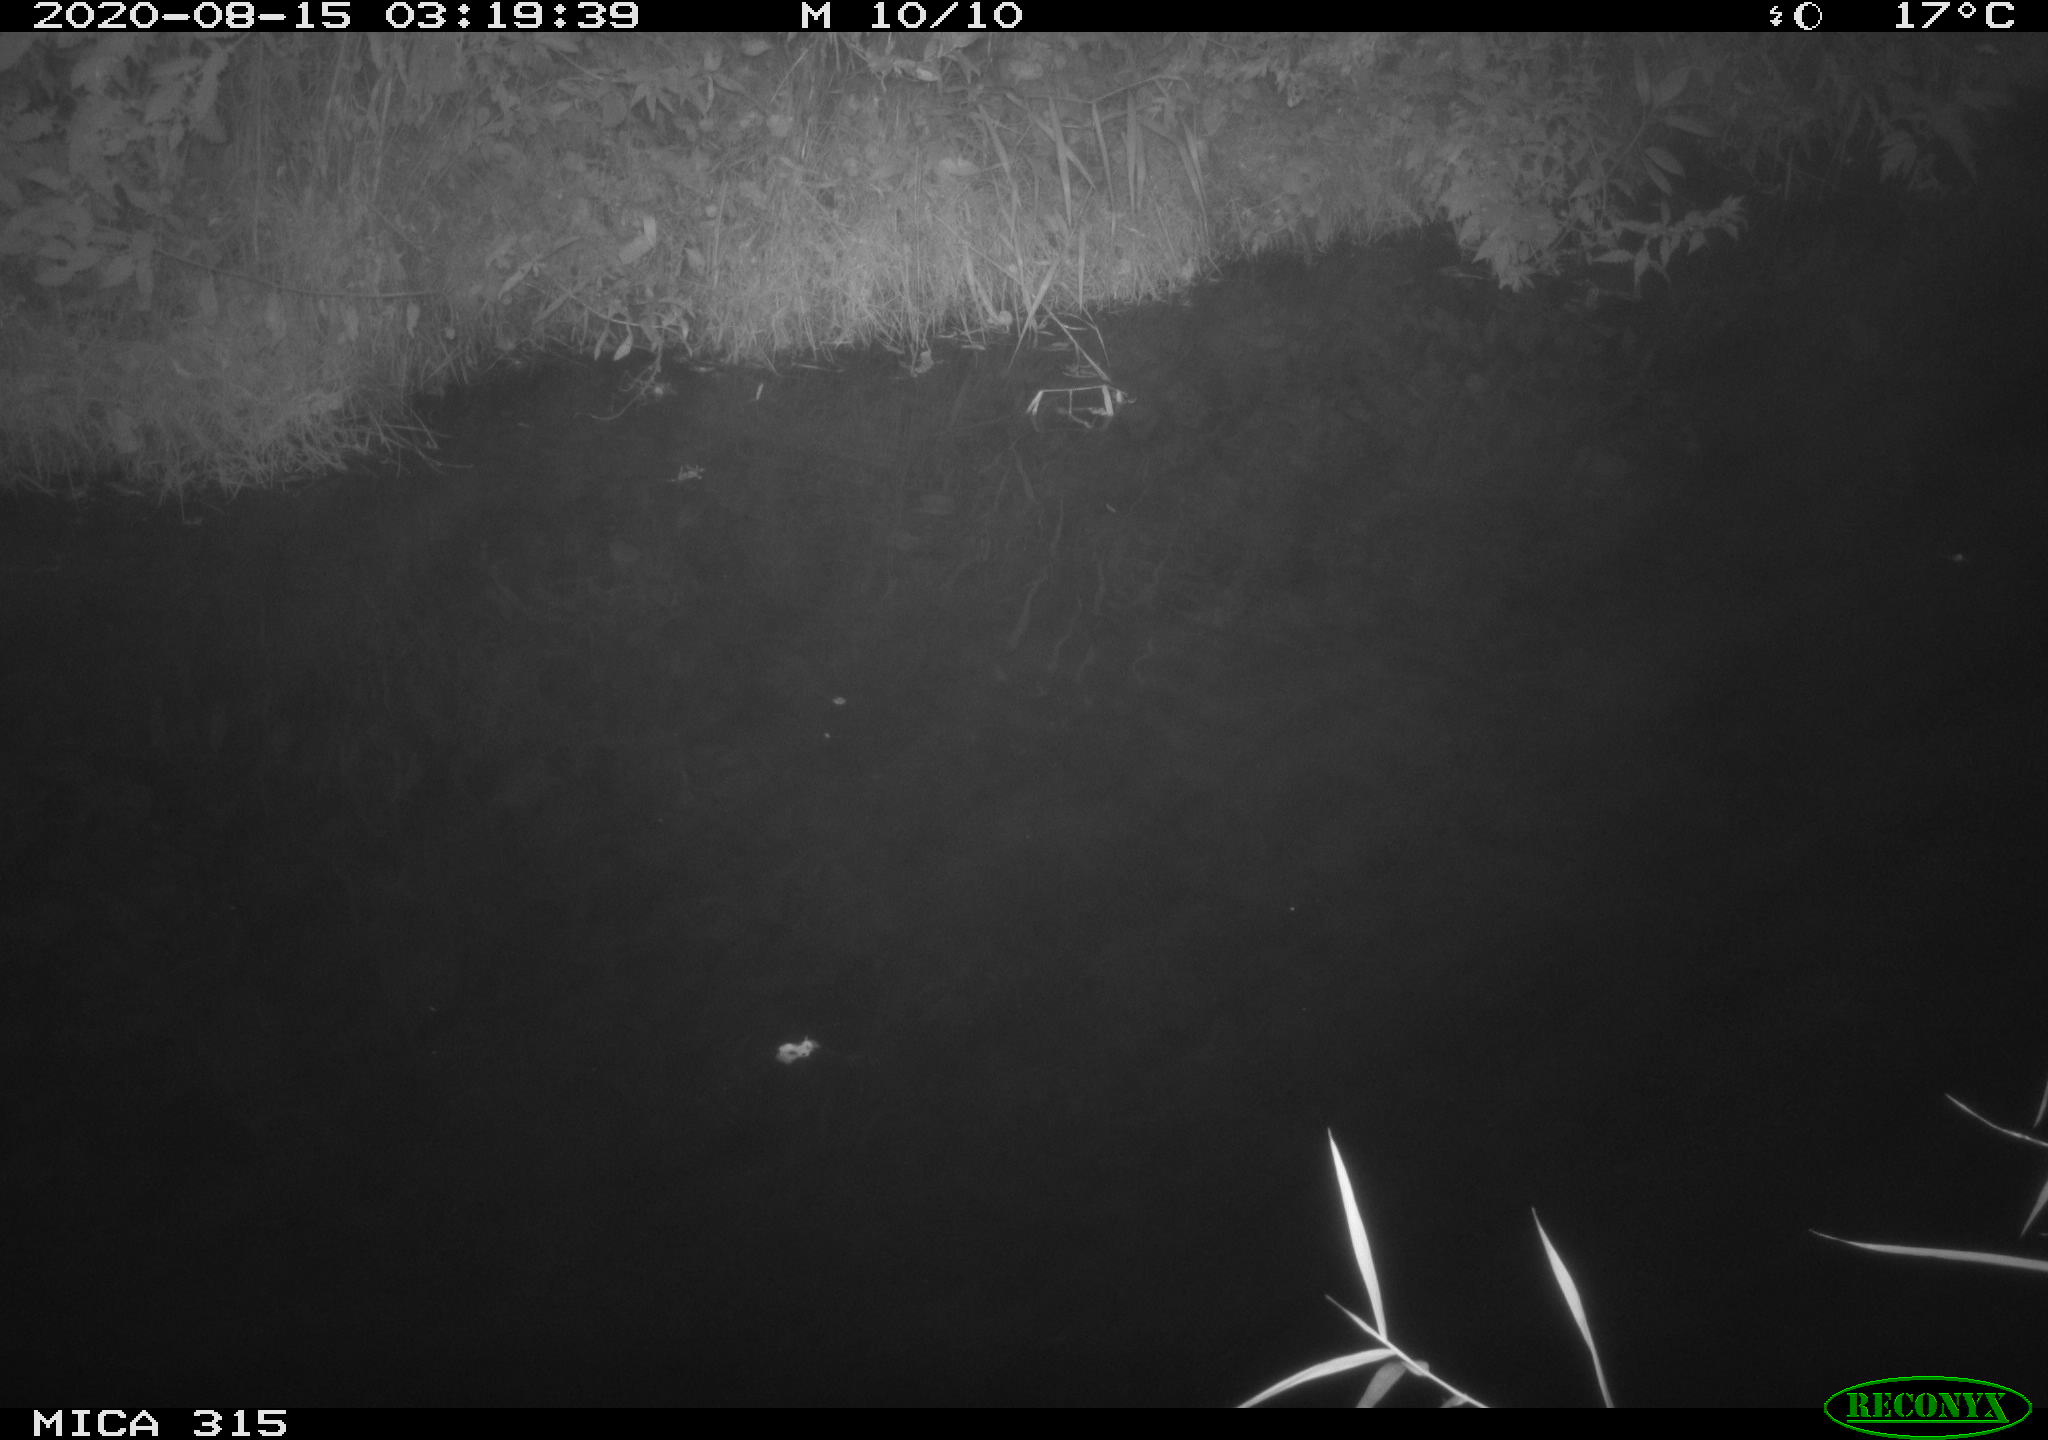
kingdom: Animalia
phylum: Chordata
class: Aves
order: Anseriformes
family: Anatidae
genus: Anas
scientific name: Anas platyrhynchos
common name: Mallard
